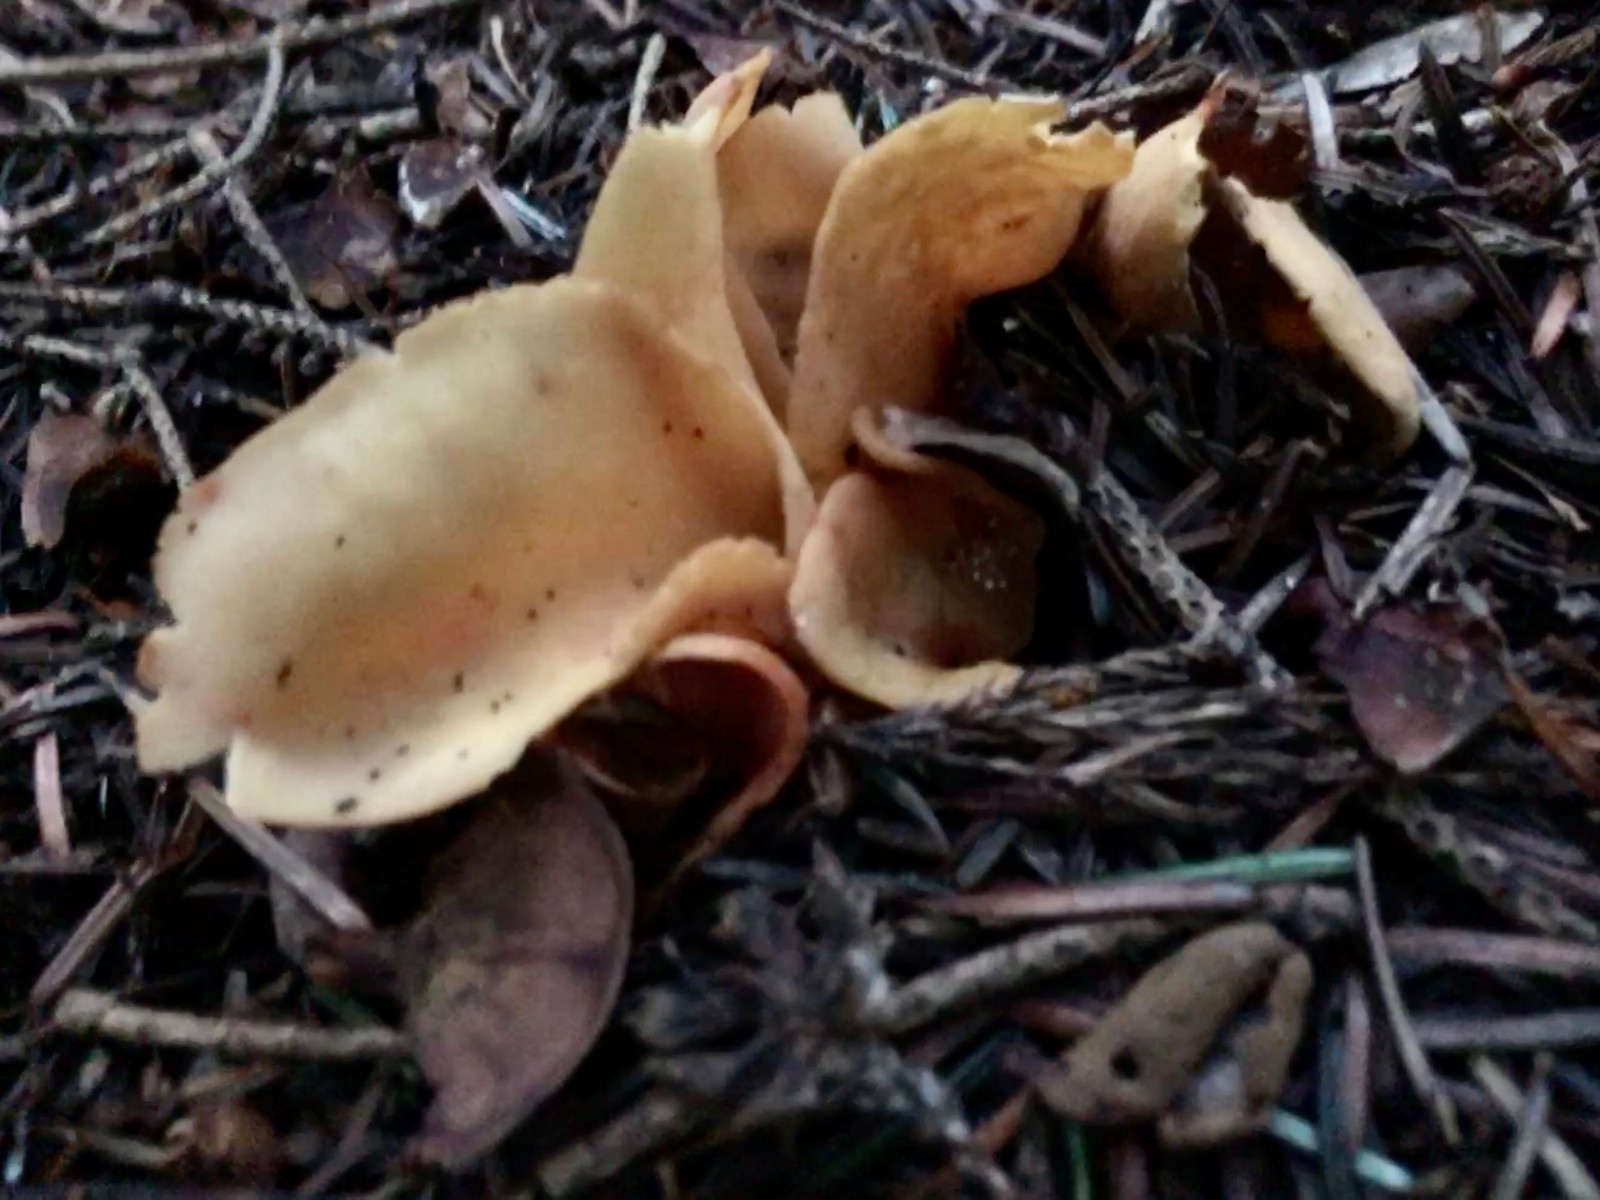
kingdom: Fungi
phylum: Ascomycota
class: Pezizomycetes
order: Pezizales
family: Otideaceae
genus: Otidea
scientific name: Otidea onotica
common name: æsel-ørebæger
